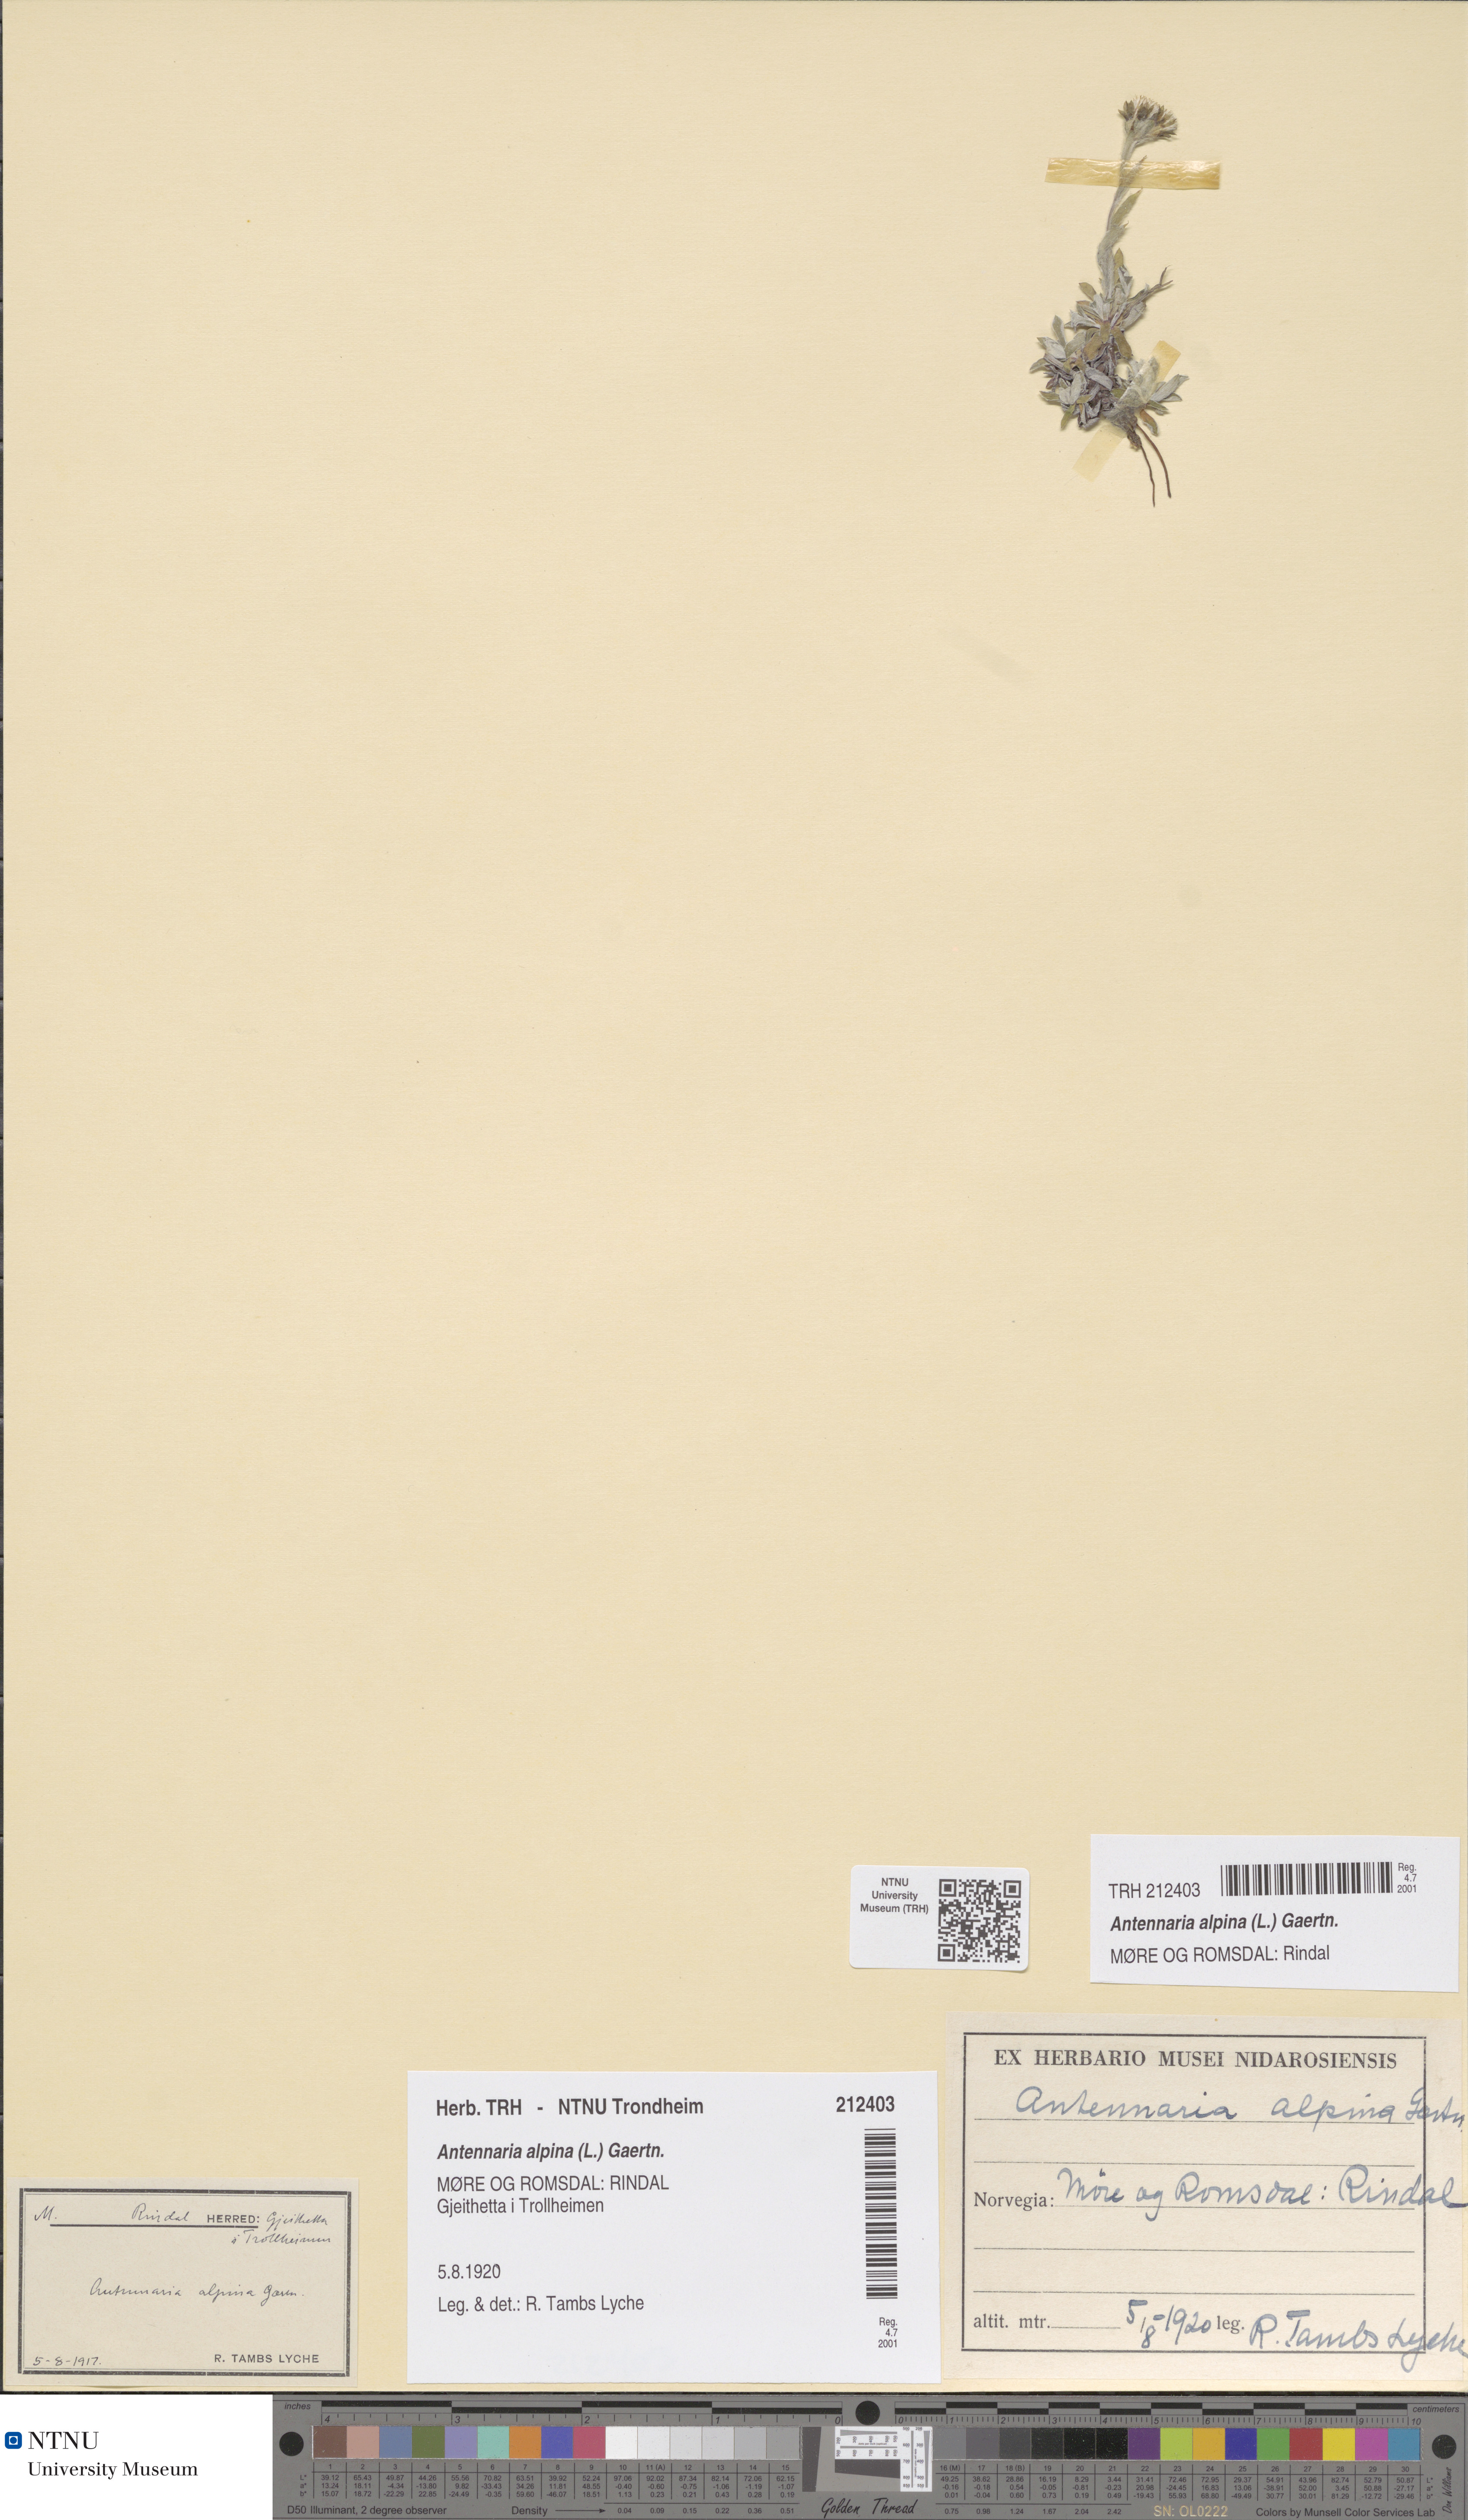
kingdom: Plantae
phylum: Tracheophyta
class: Magnoliopsida
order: Asterales
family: Asteraceae
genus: Antennaria
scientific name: Antennaria alpina
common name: Alpine pussytoes
